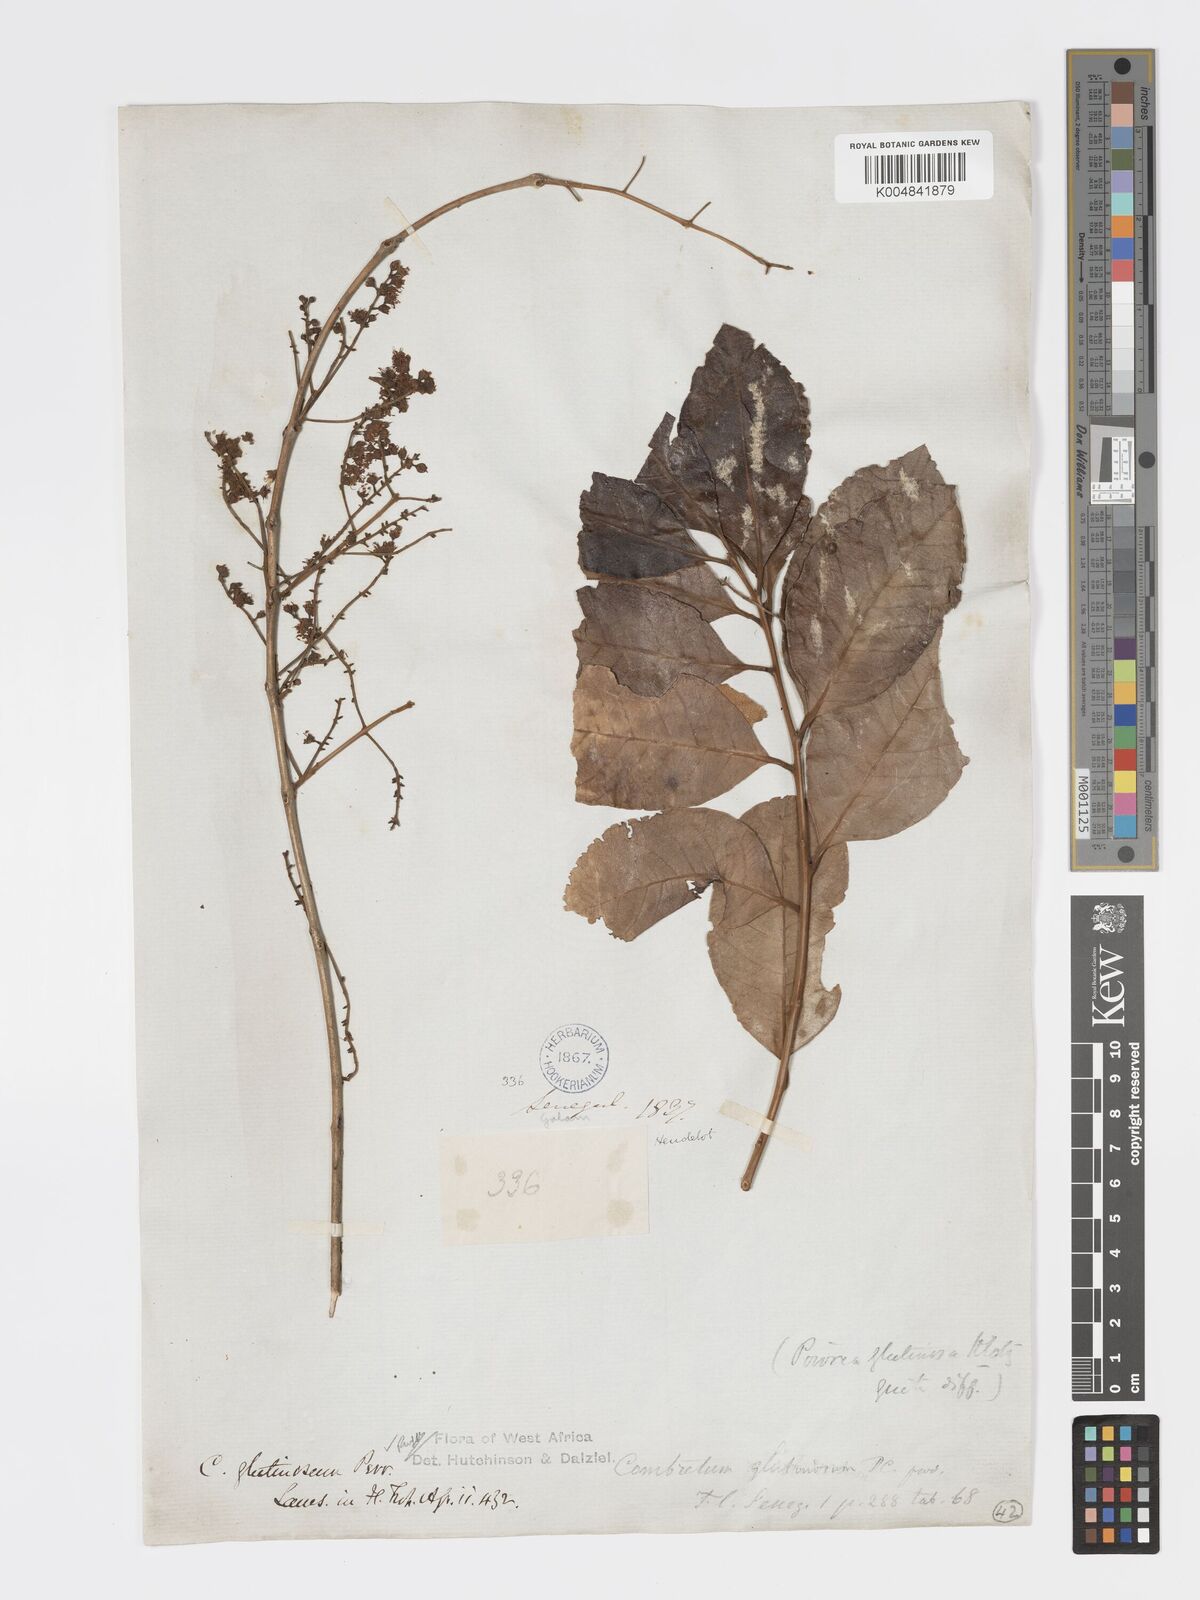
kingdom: Plantae
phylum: Tracheophyta
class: Magnoliopsida
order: Myrtales
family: Combretaceae
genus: Combretum
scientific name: Combretum
